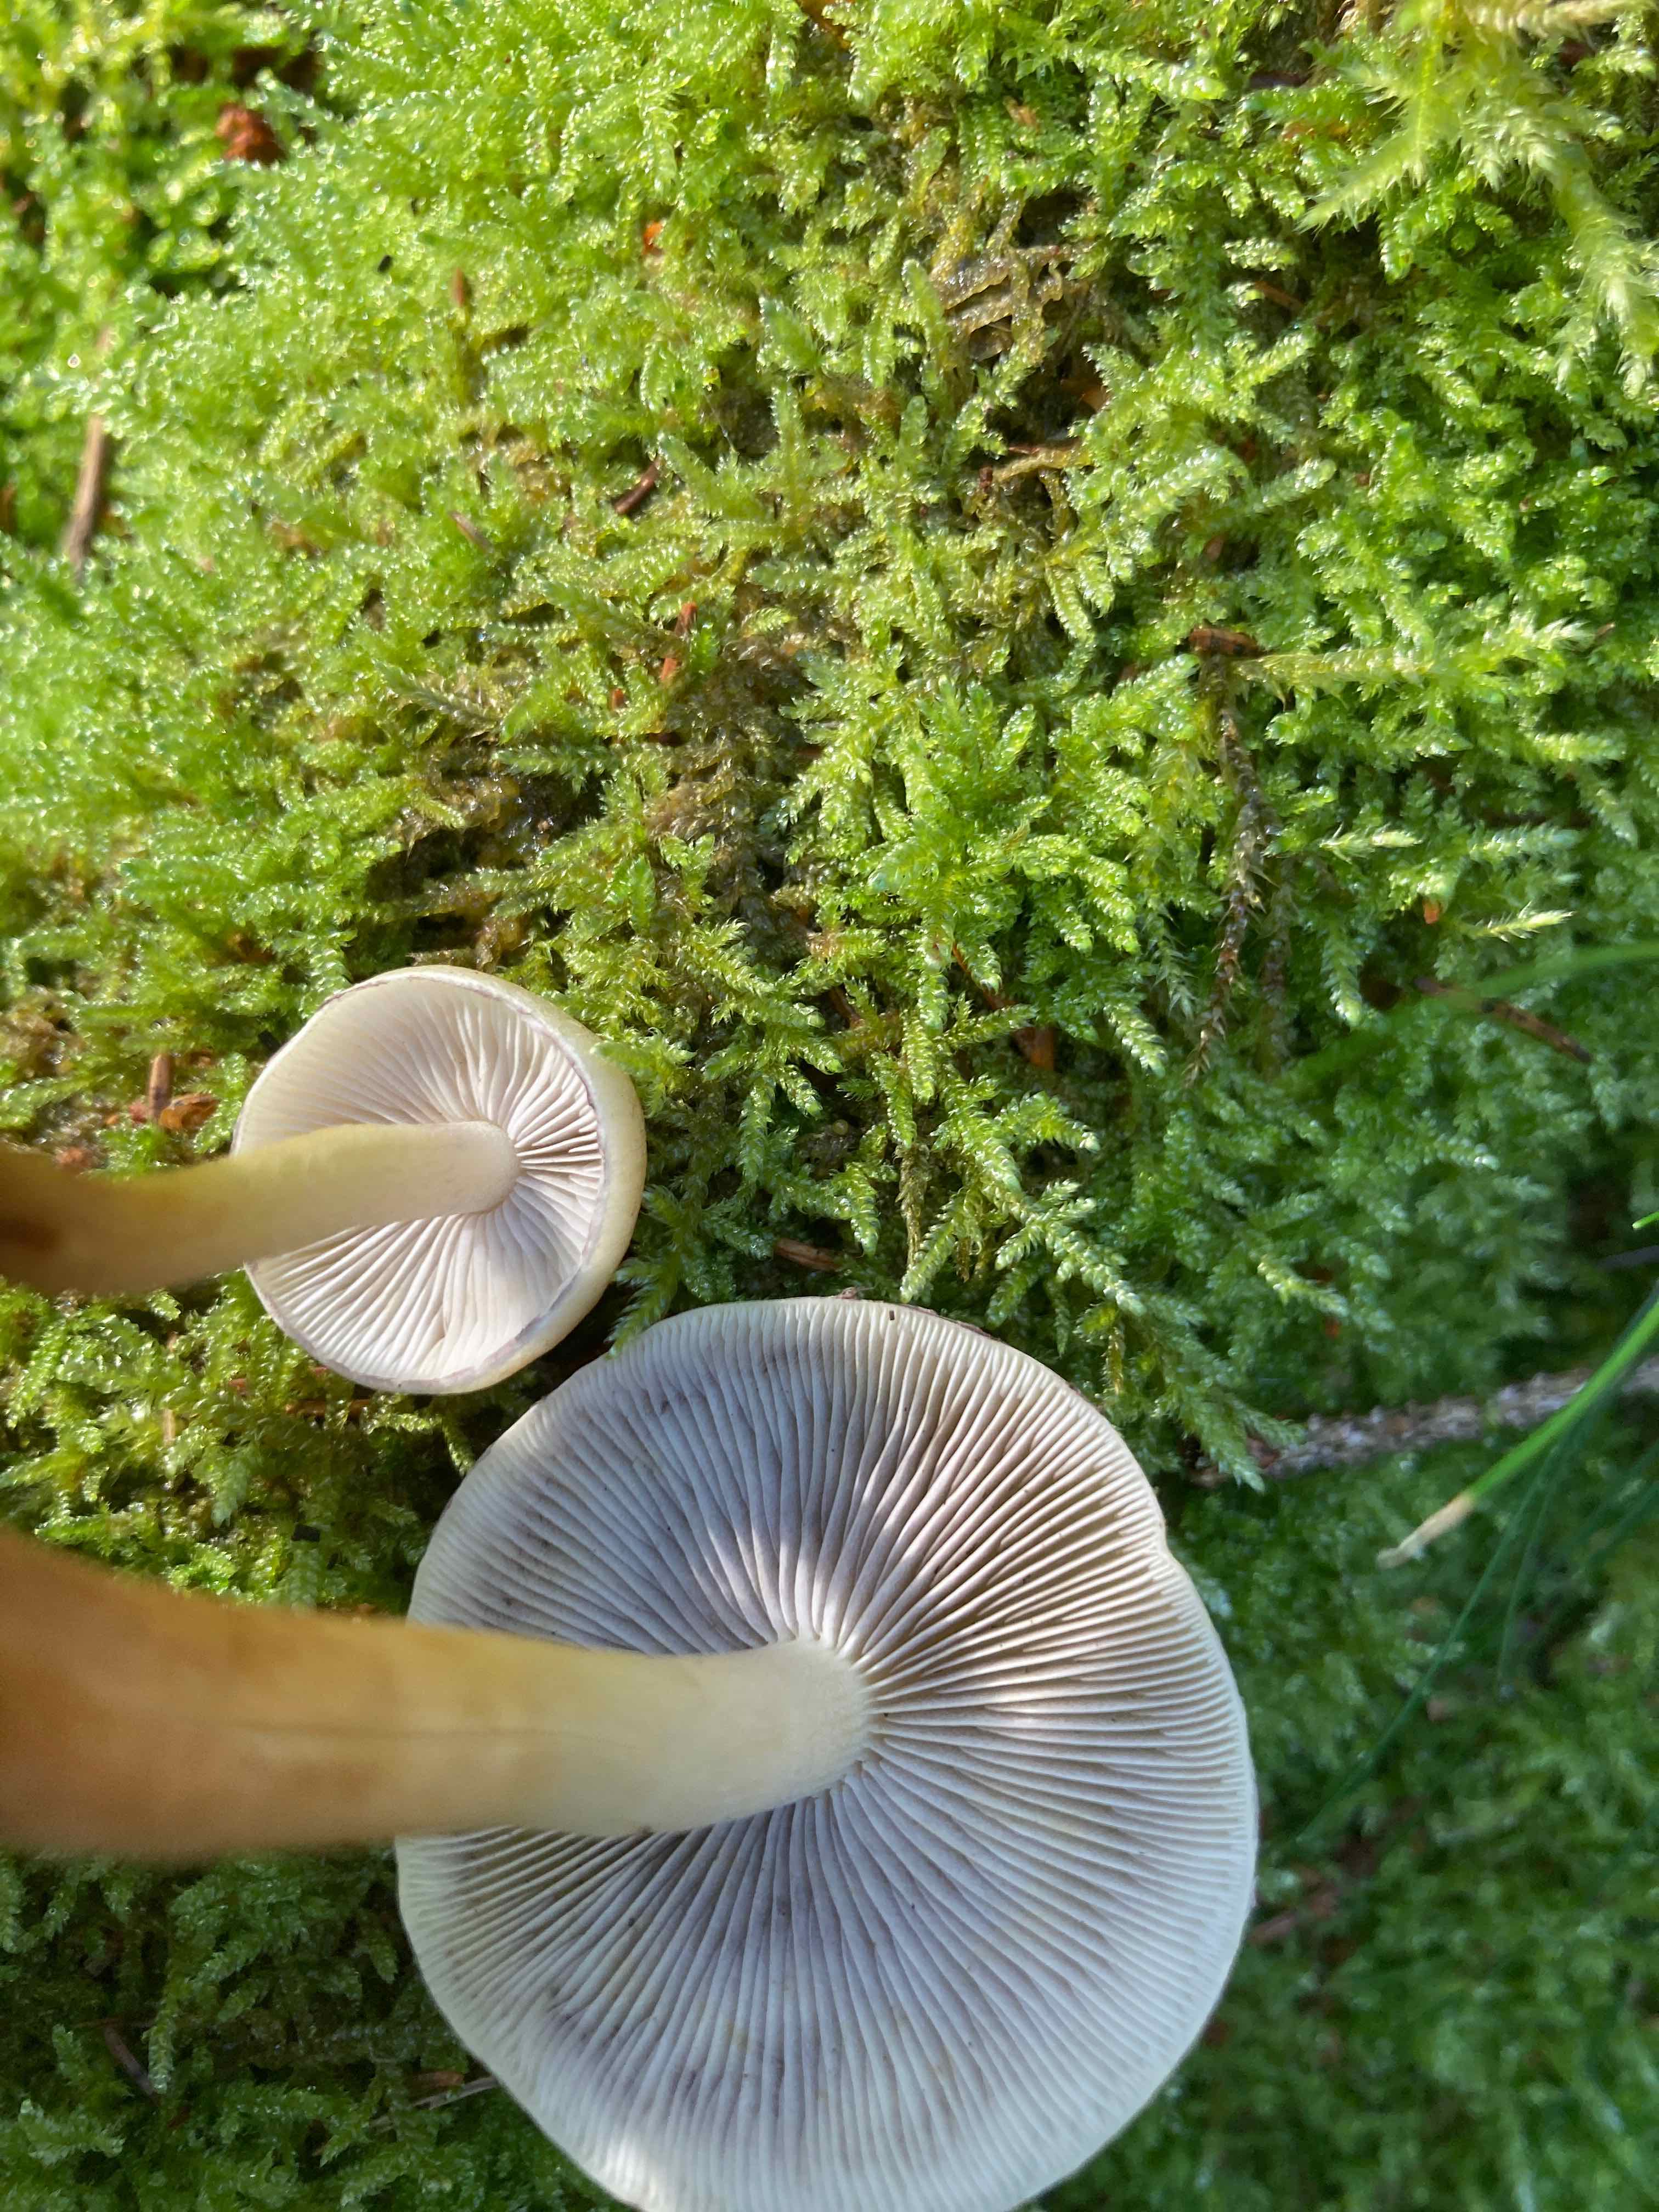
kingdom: Fungi
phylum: Basidiomycota
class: Agaricomycetes
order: Agaricales
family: Strophariaceae
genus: Hypholoma
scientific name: Hypholoma capnoides
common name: gran-svovlhat
